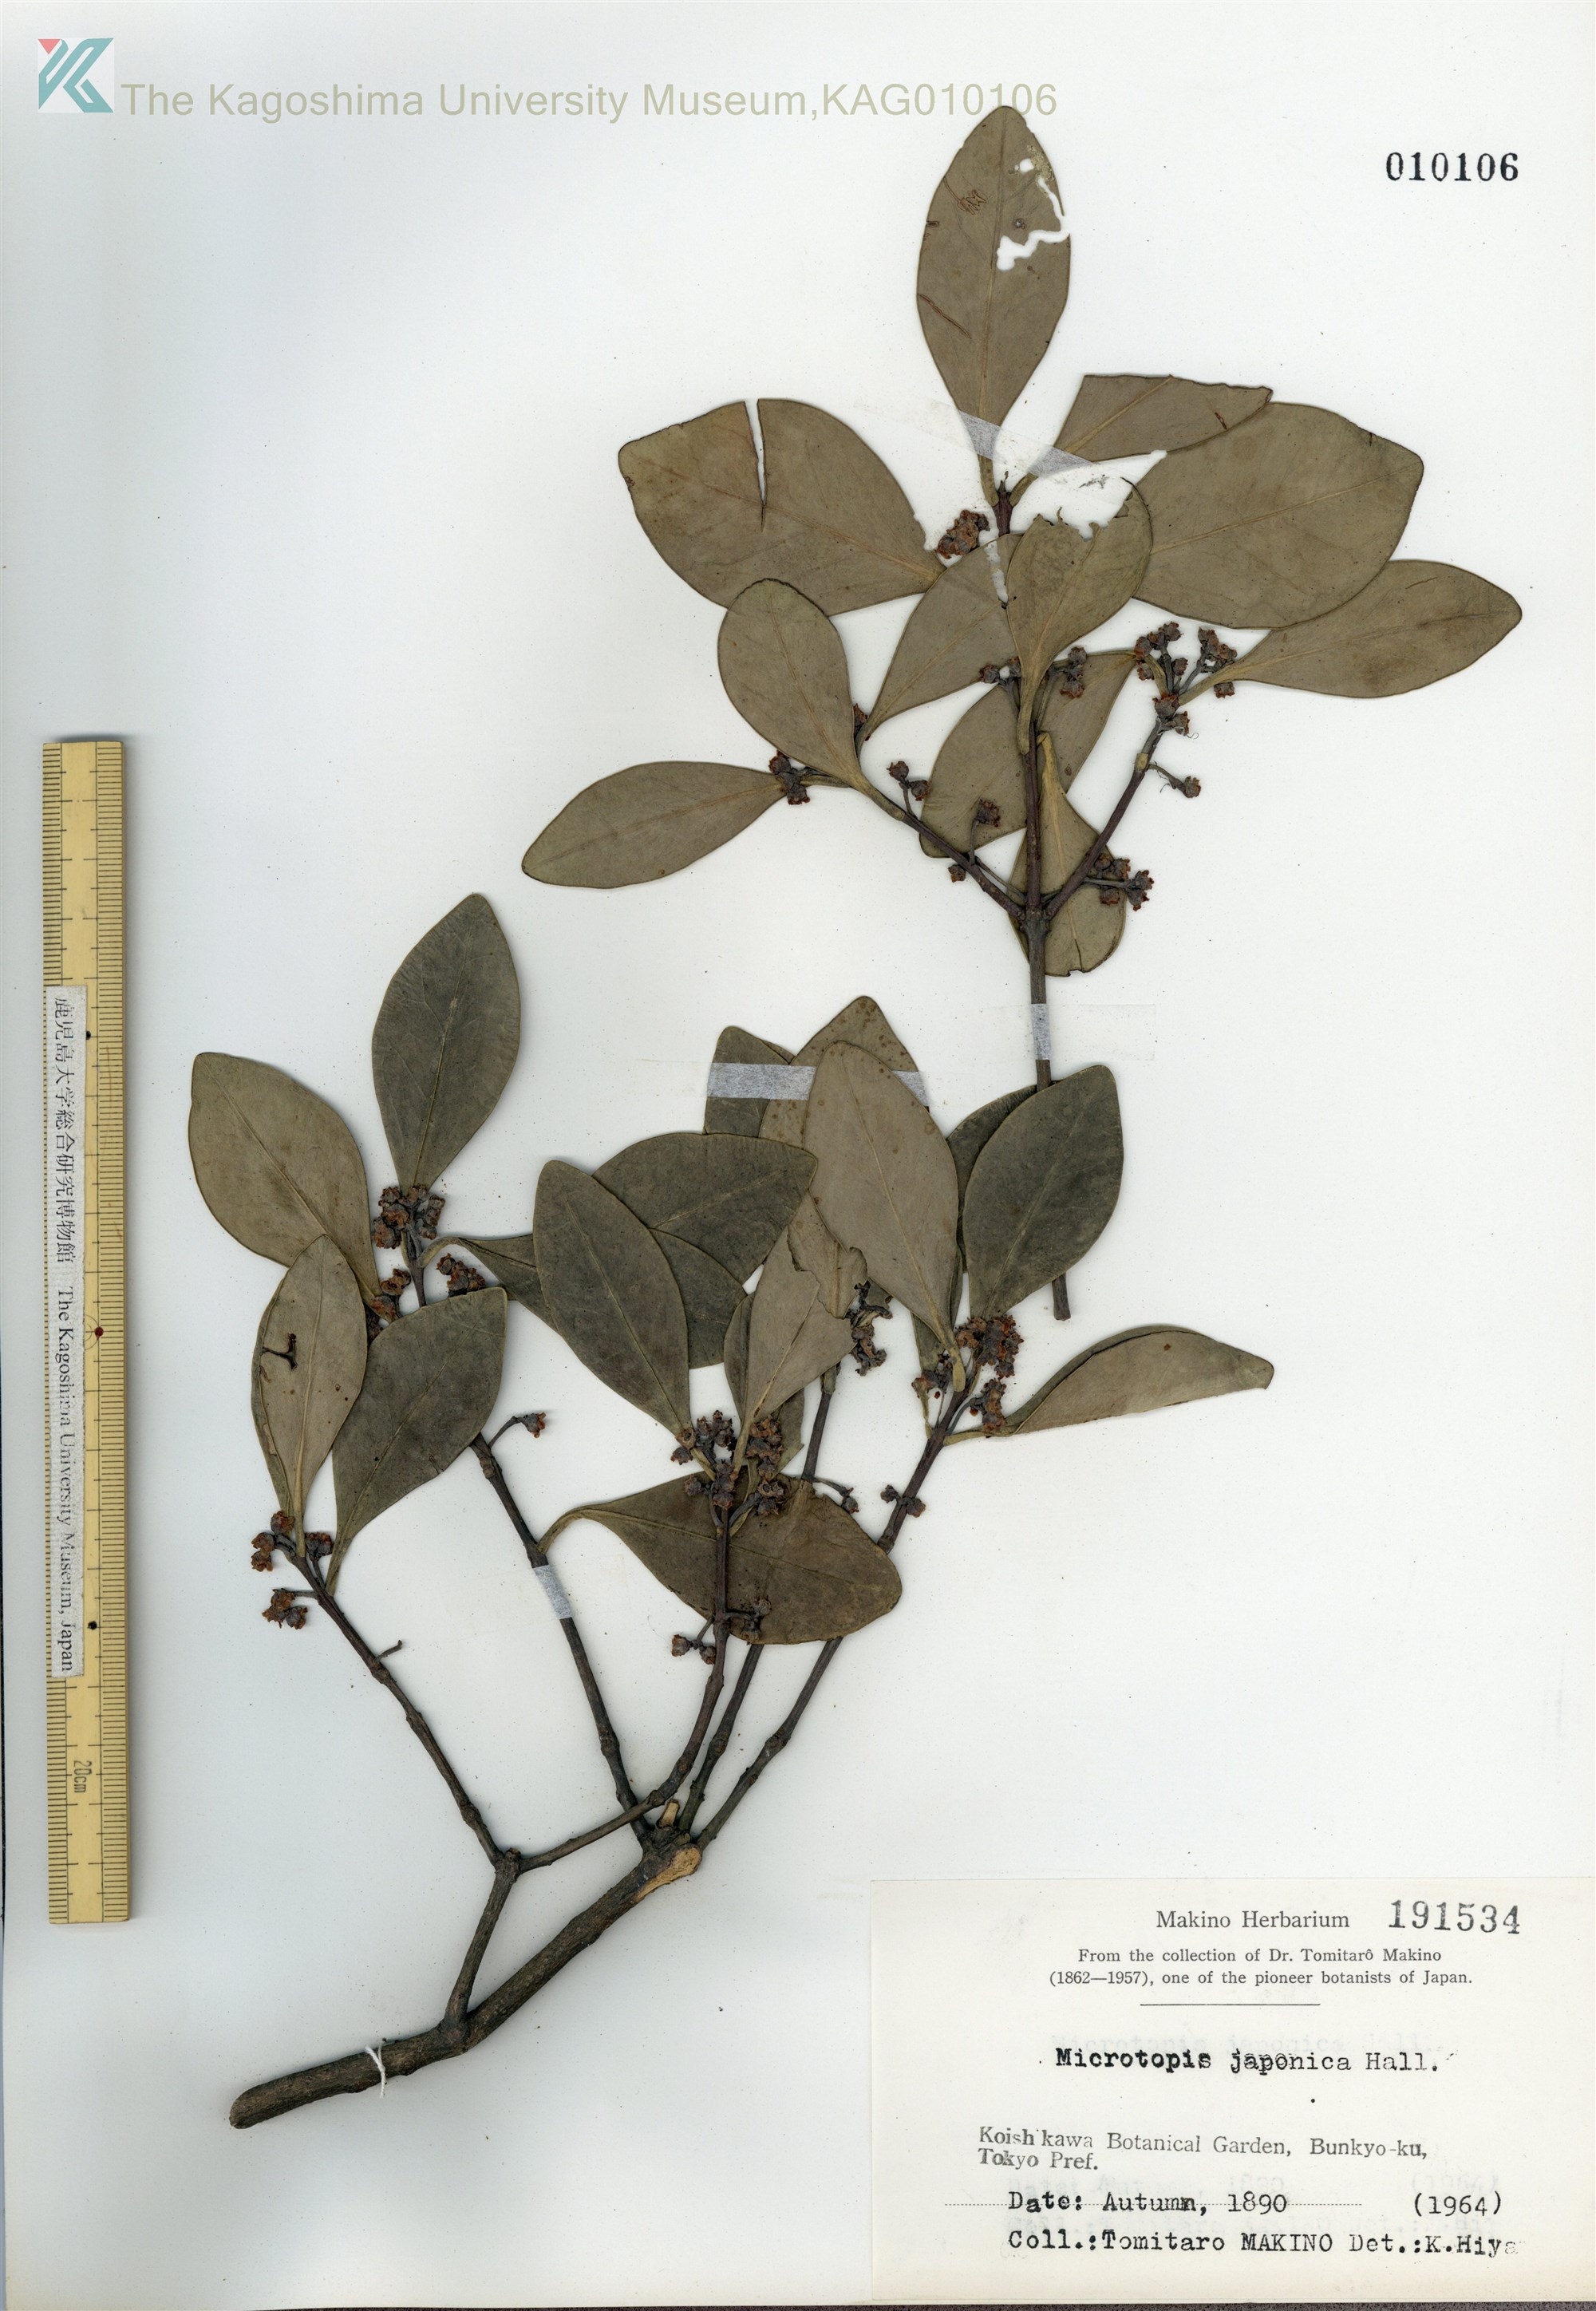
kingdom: Plantae
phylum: Tracheophyta
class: Magnoliopsida
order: Celastrales
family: Celastraceae
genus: Microtropis
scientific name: Microtropis japonica
